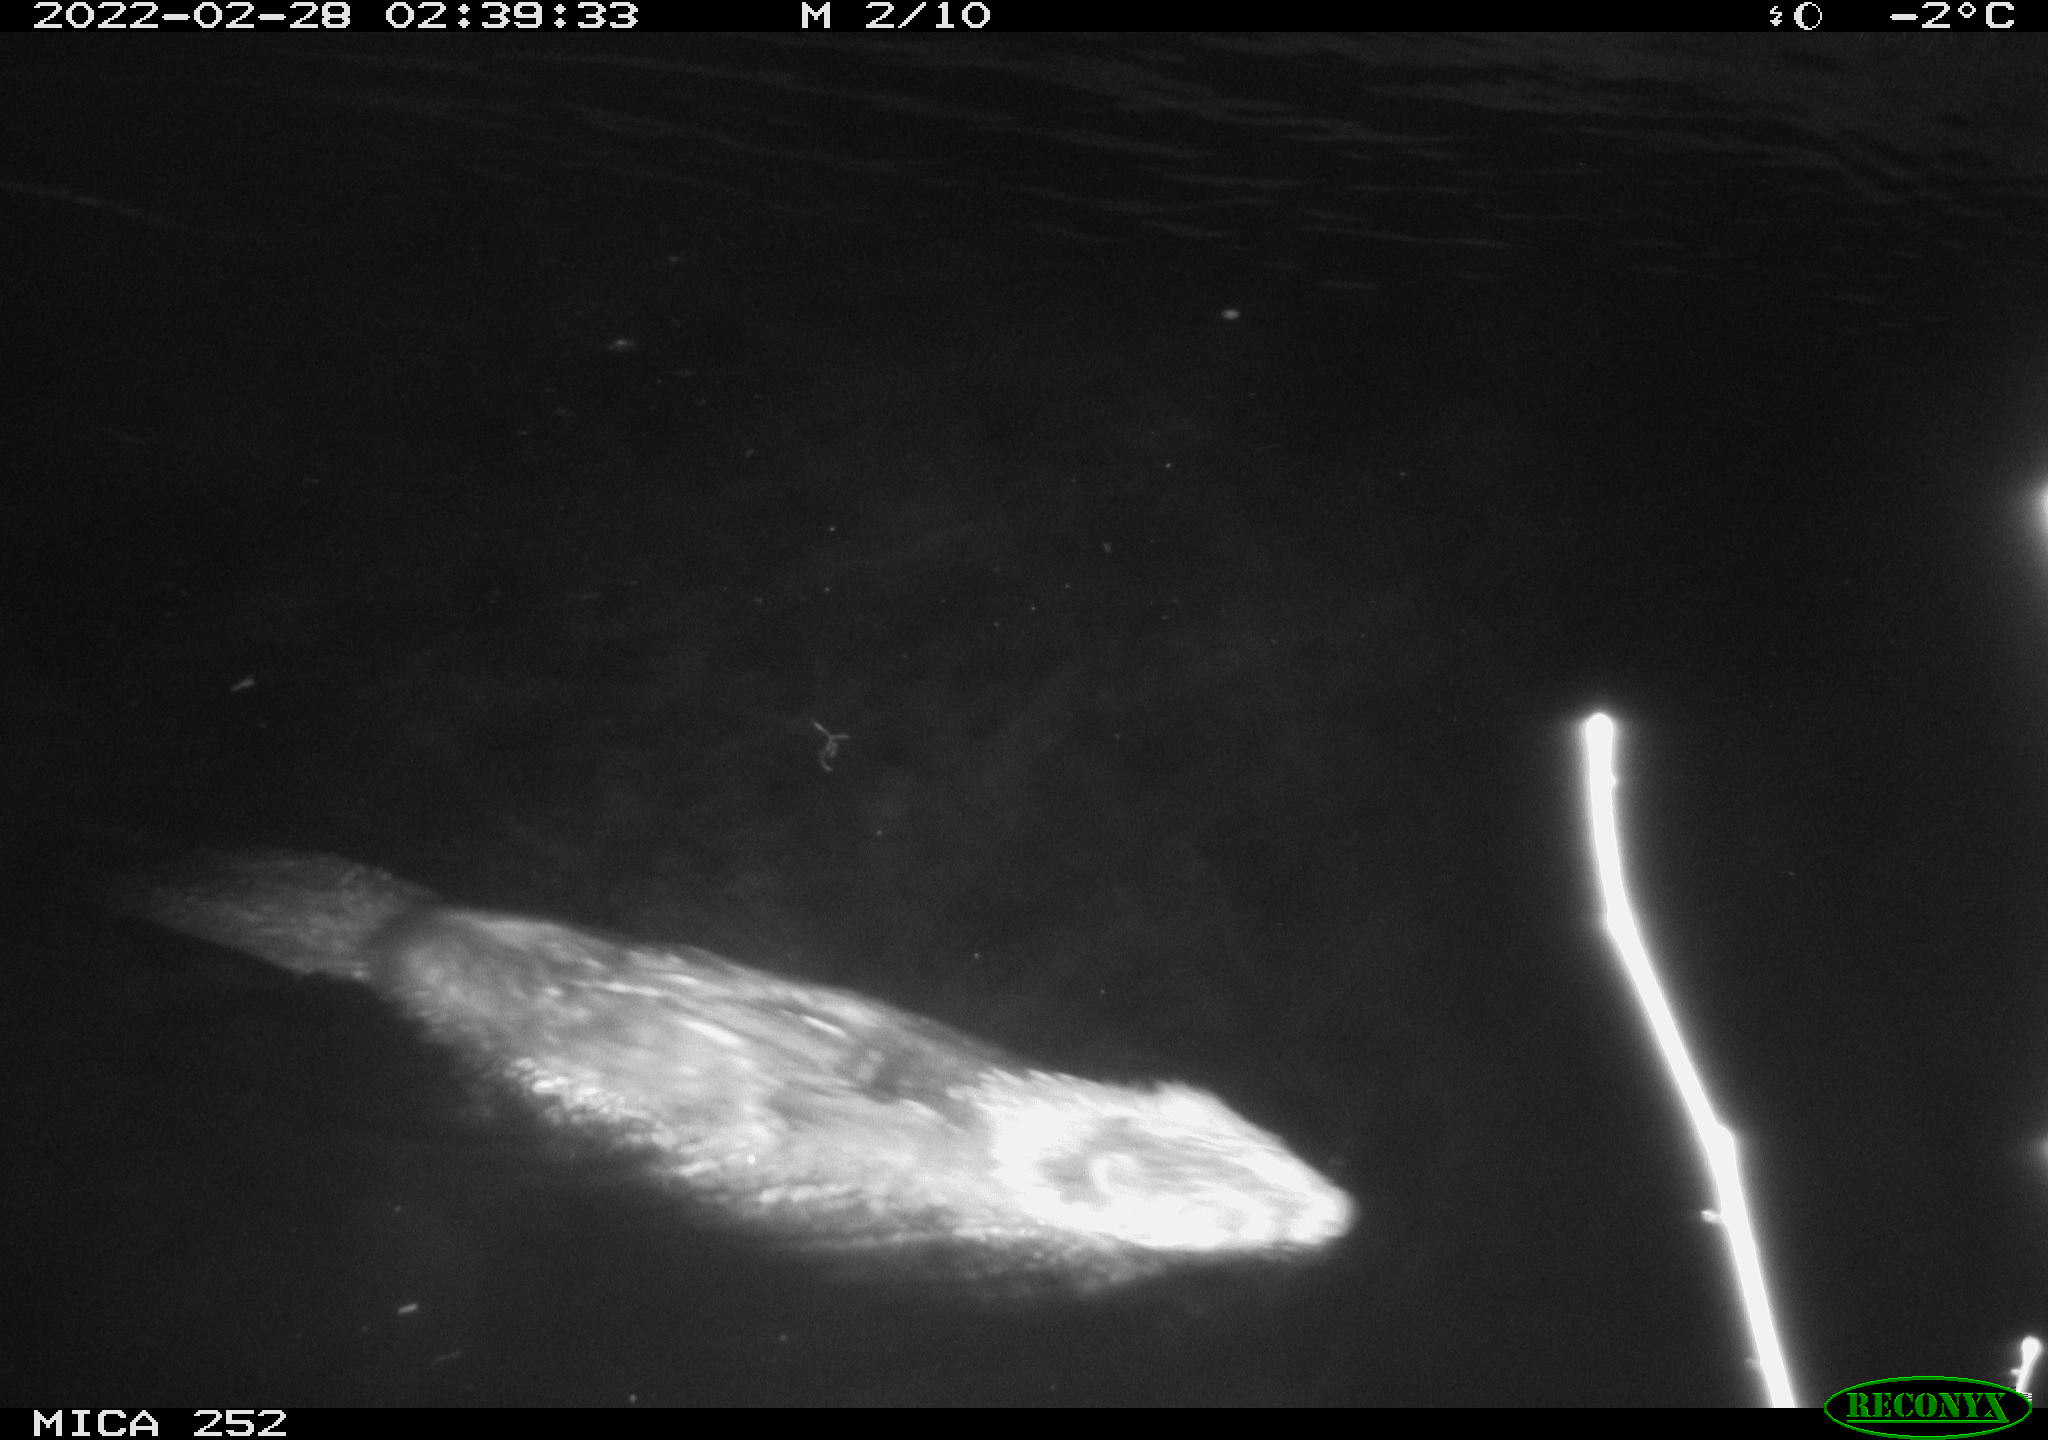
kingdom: Animalia
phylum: Chordata
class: Mammalia
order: Rodentia
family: Castoridae
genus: Castor
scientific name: Castor fiber
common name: Eurasian beaver
